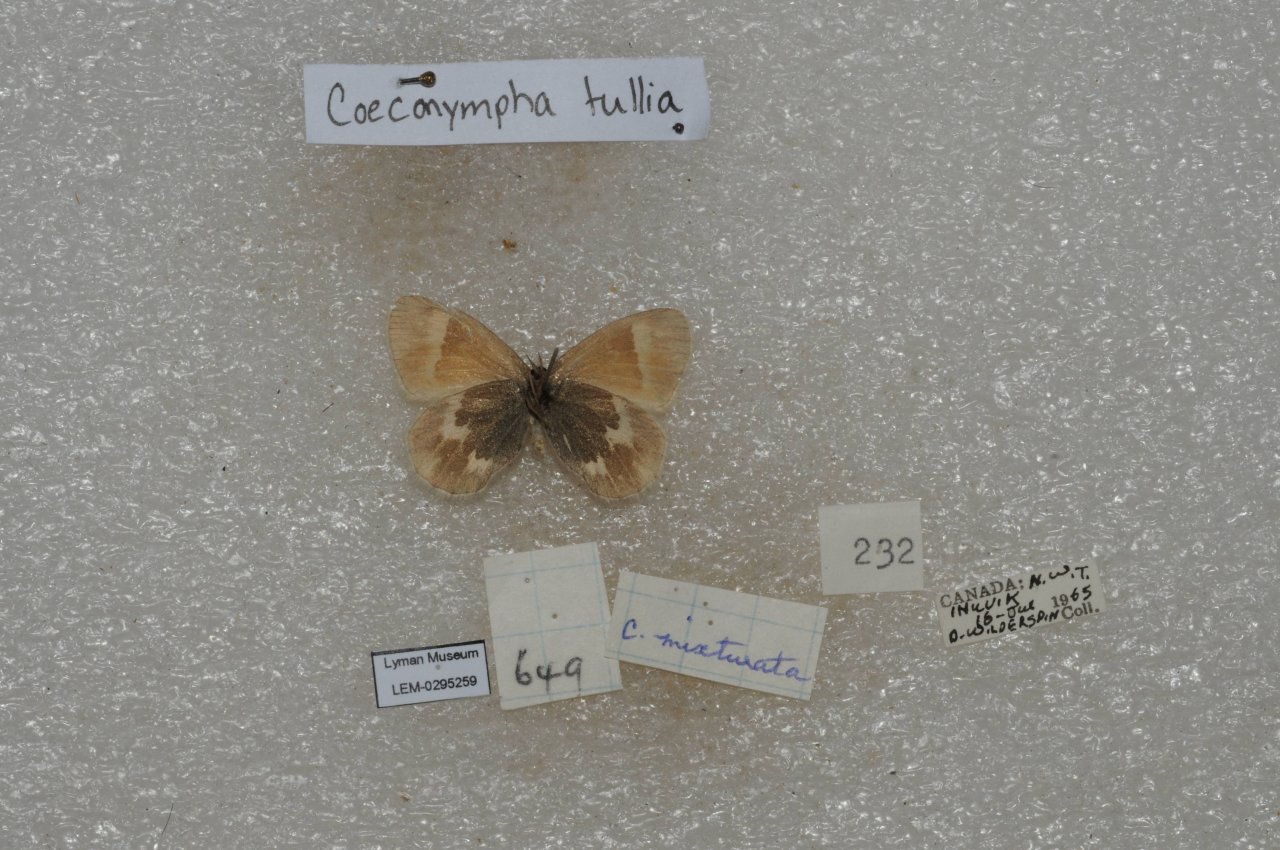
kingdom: Animalia
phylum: Arthropoda
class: Insecta
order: Lepidoptera
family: Nymphalidae
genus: Coenonympha
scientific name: Coenonympha tullia
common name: Large Heath
